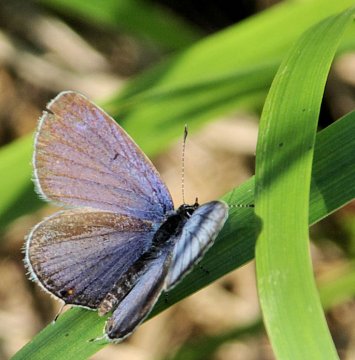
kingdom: Animalia
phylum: Arthropoda
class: Insecta
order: Lepidoptera
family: Lycaenidae
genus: Elkalyce
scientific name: Elkalyce comyntas
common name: Eastern Tailed-Blue
